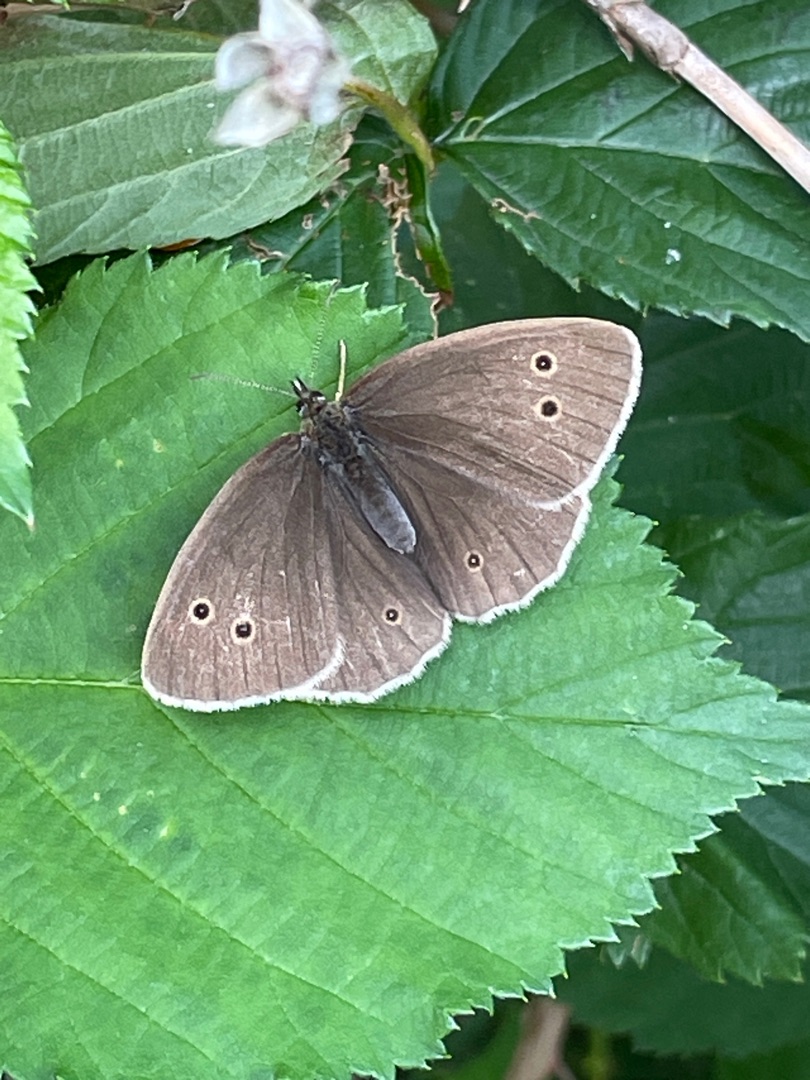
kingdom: Animalia
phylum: Arthropoda
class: Insecta
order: Lepidoptera
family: Nymphalidae
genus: Aphantopus
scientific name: Aphantopus hyperantus
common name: Engrandøje
